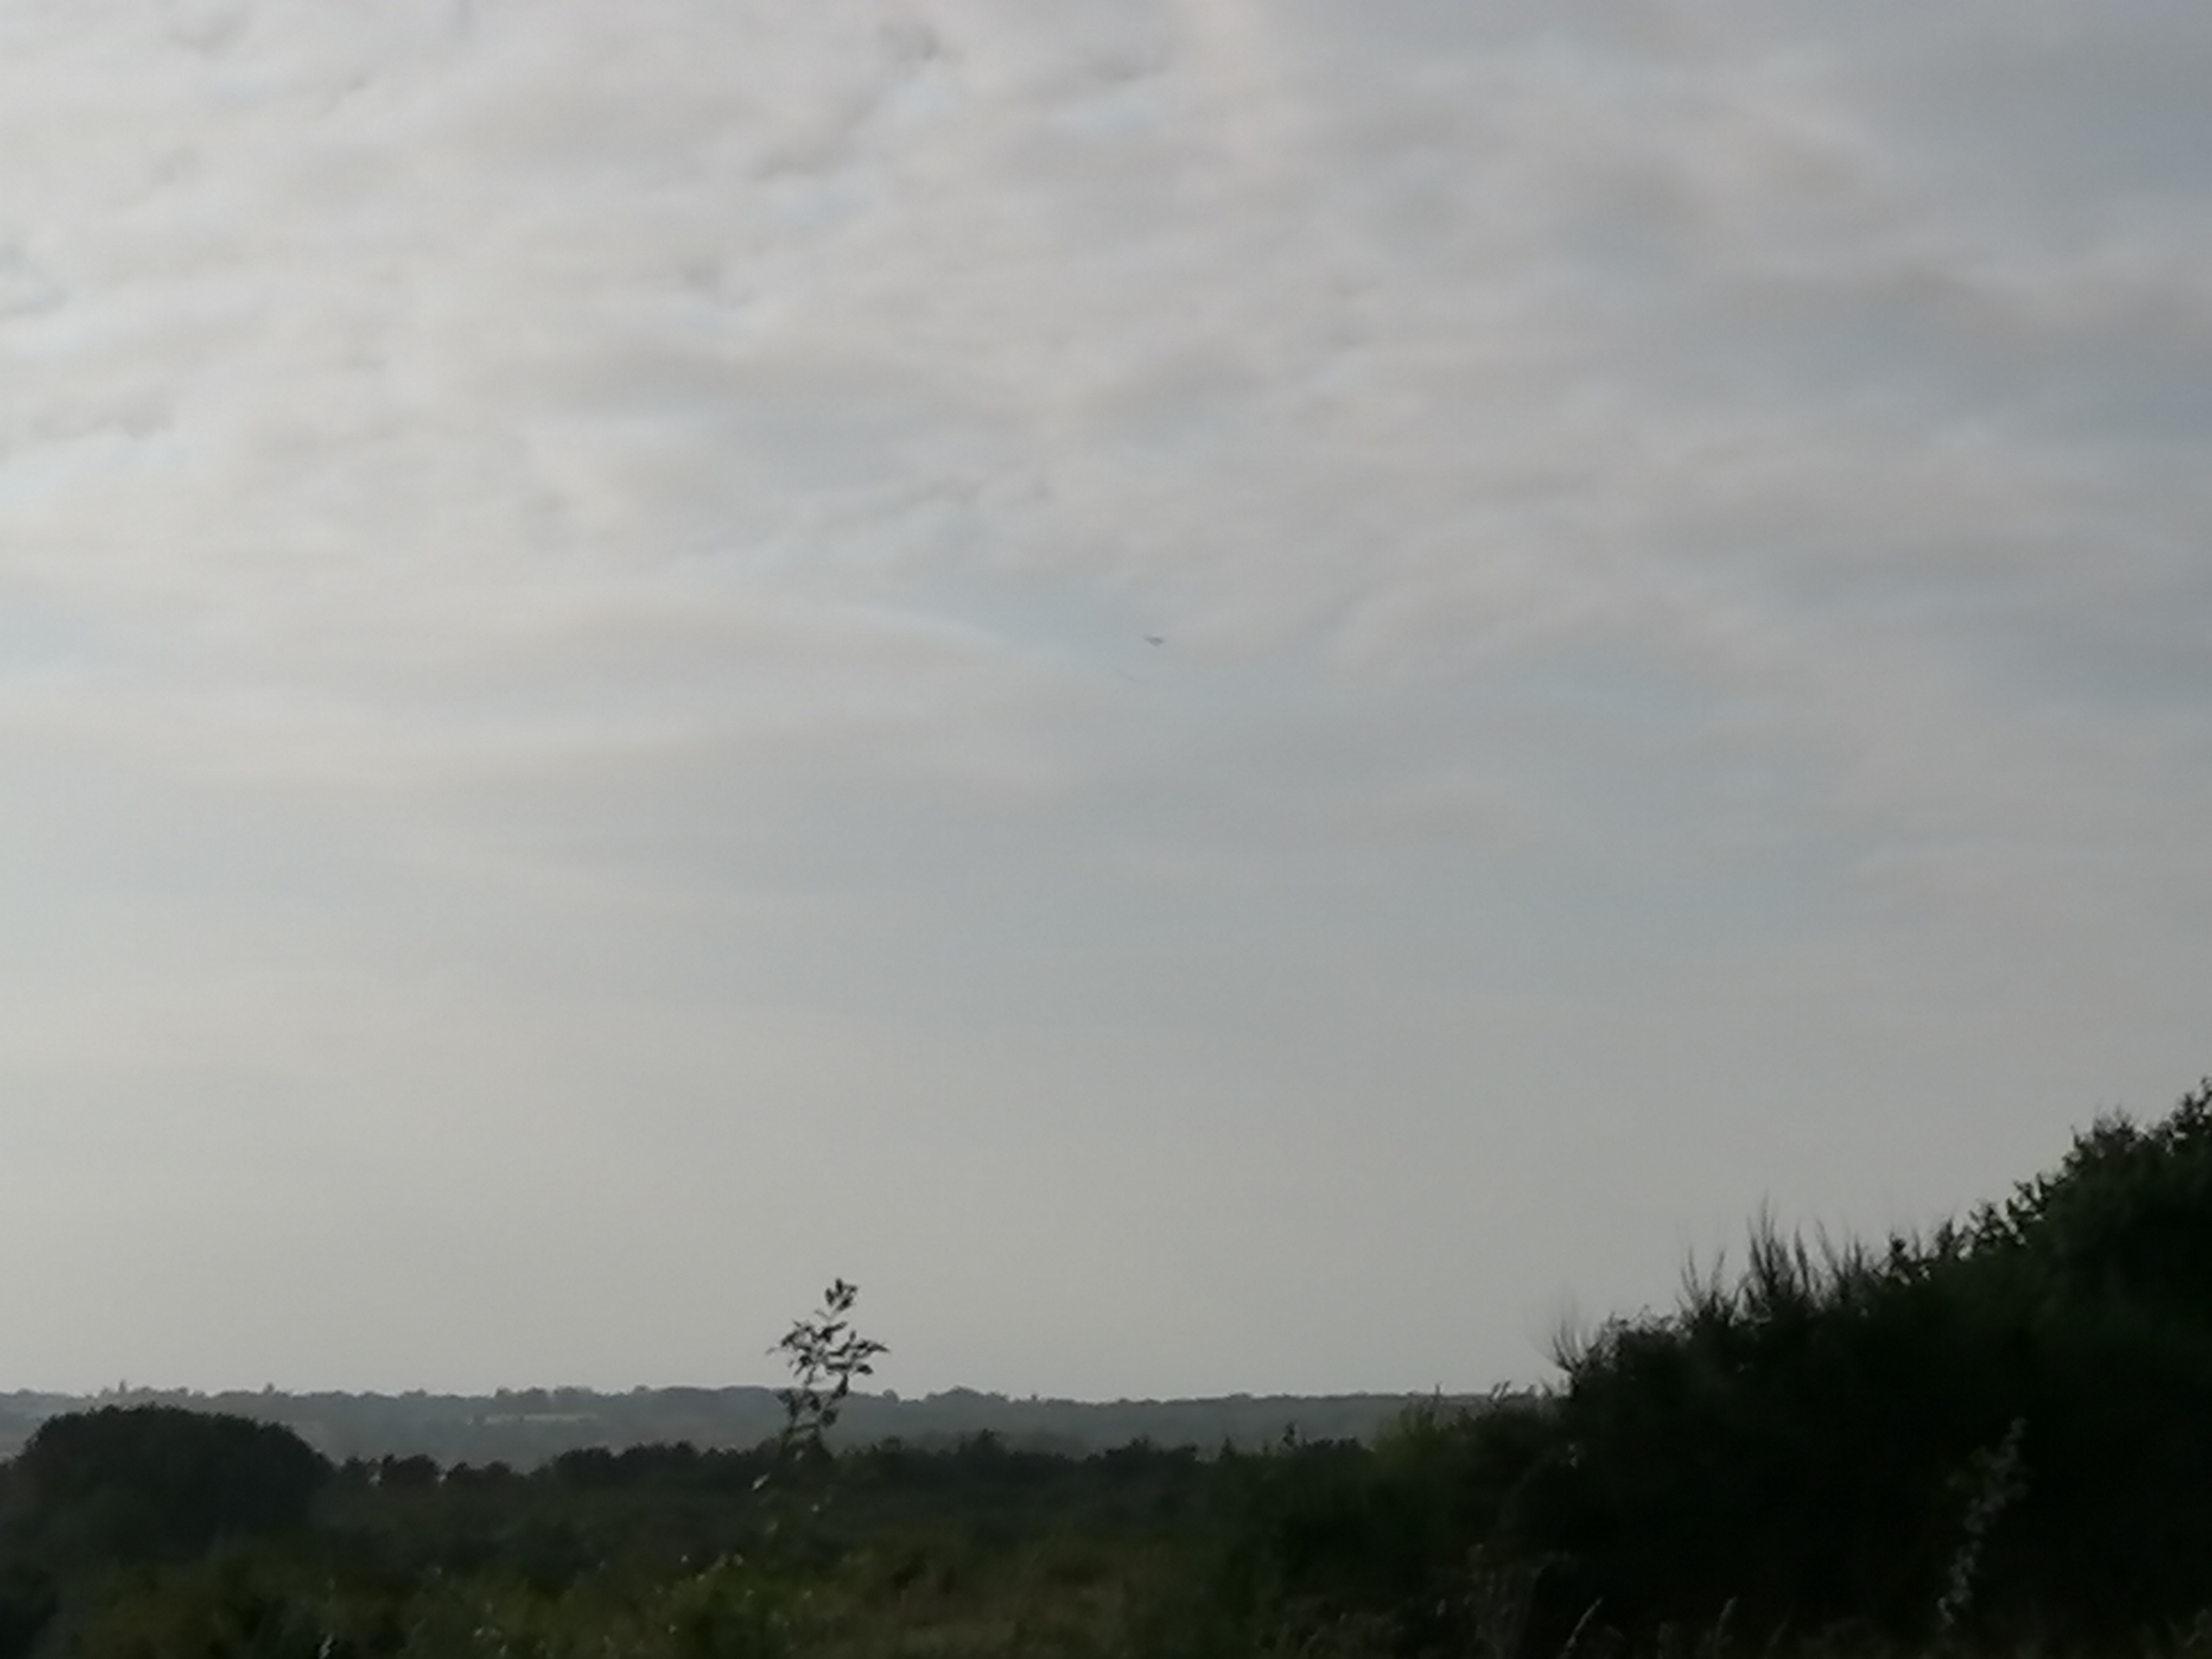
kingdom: Animalia
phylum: Chordata
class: Aves
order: Falconiformes
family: Falconidae
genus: Falco
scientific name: Falco tinnunculus
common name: Tårnfalk
